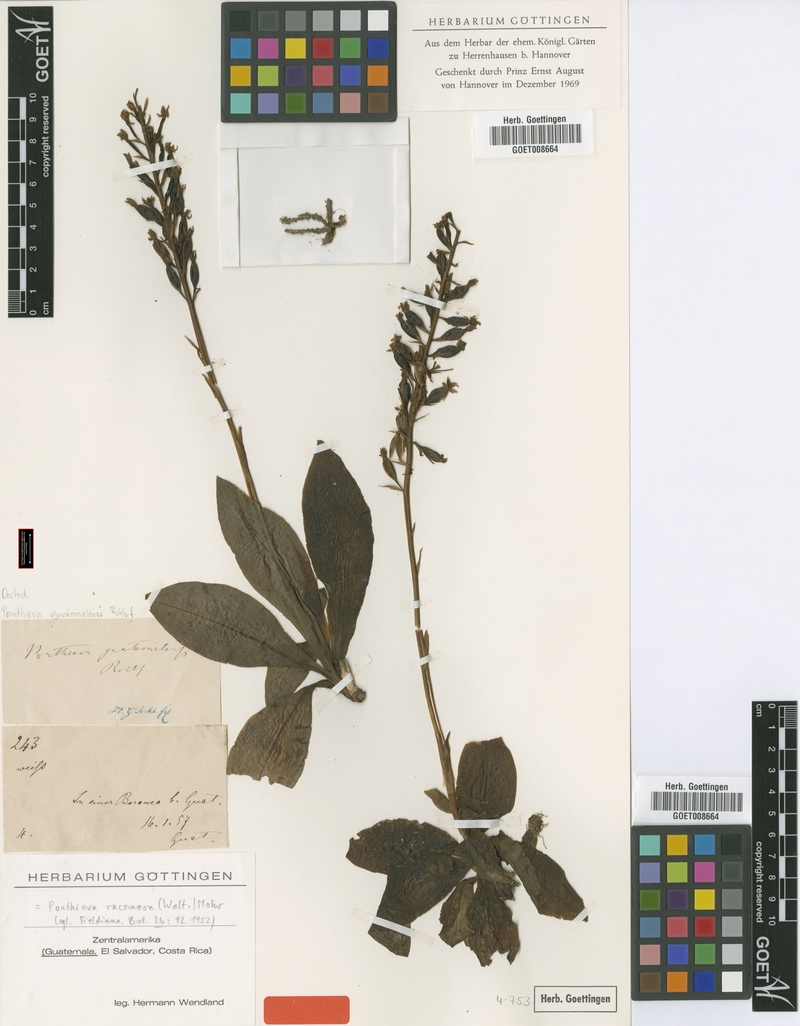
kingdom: Plantae
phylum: Tracheophyta
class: Liliopsida
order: Asparagales
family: Orchidaceae
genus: Ponthieva
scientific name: Ponthieva racemosa
